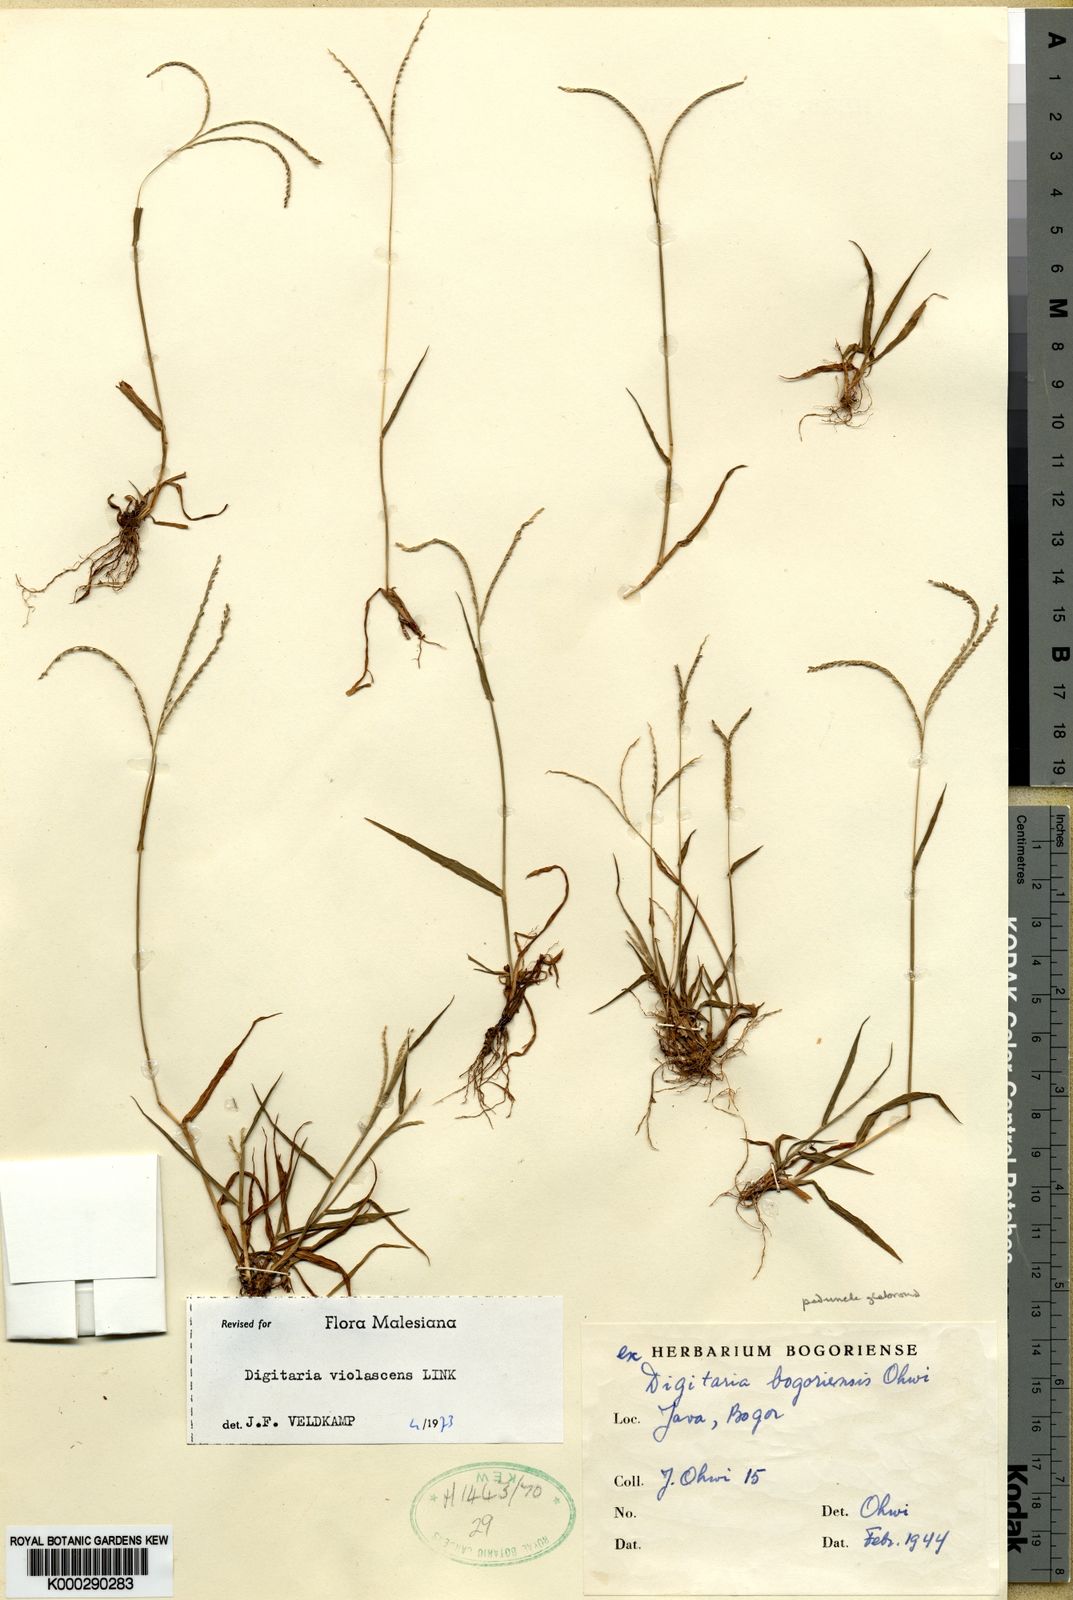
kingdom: Plantae
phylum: Tracheophyta
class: Liliopsida
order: Poales
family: Poaceae
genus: Digitaria
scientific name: Digitaria violascens
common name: Violet crabgrass
